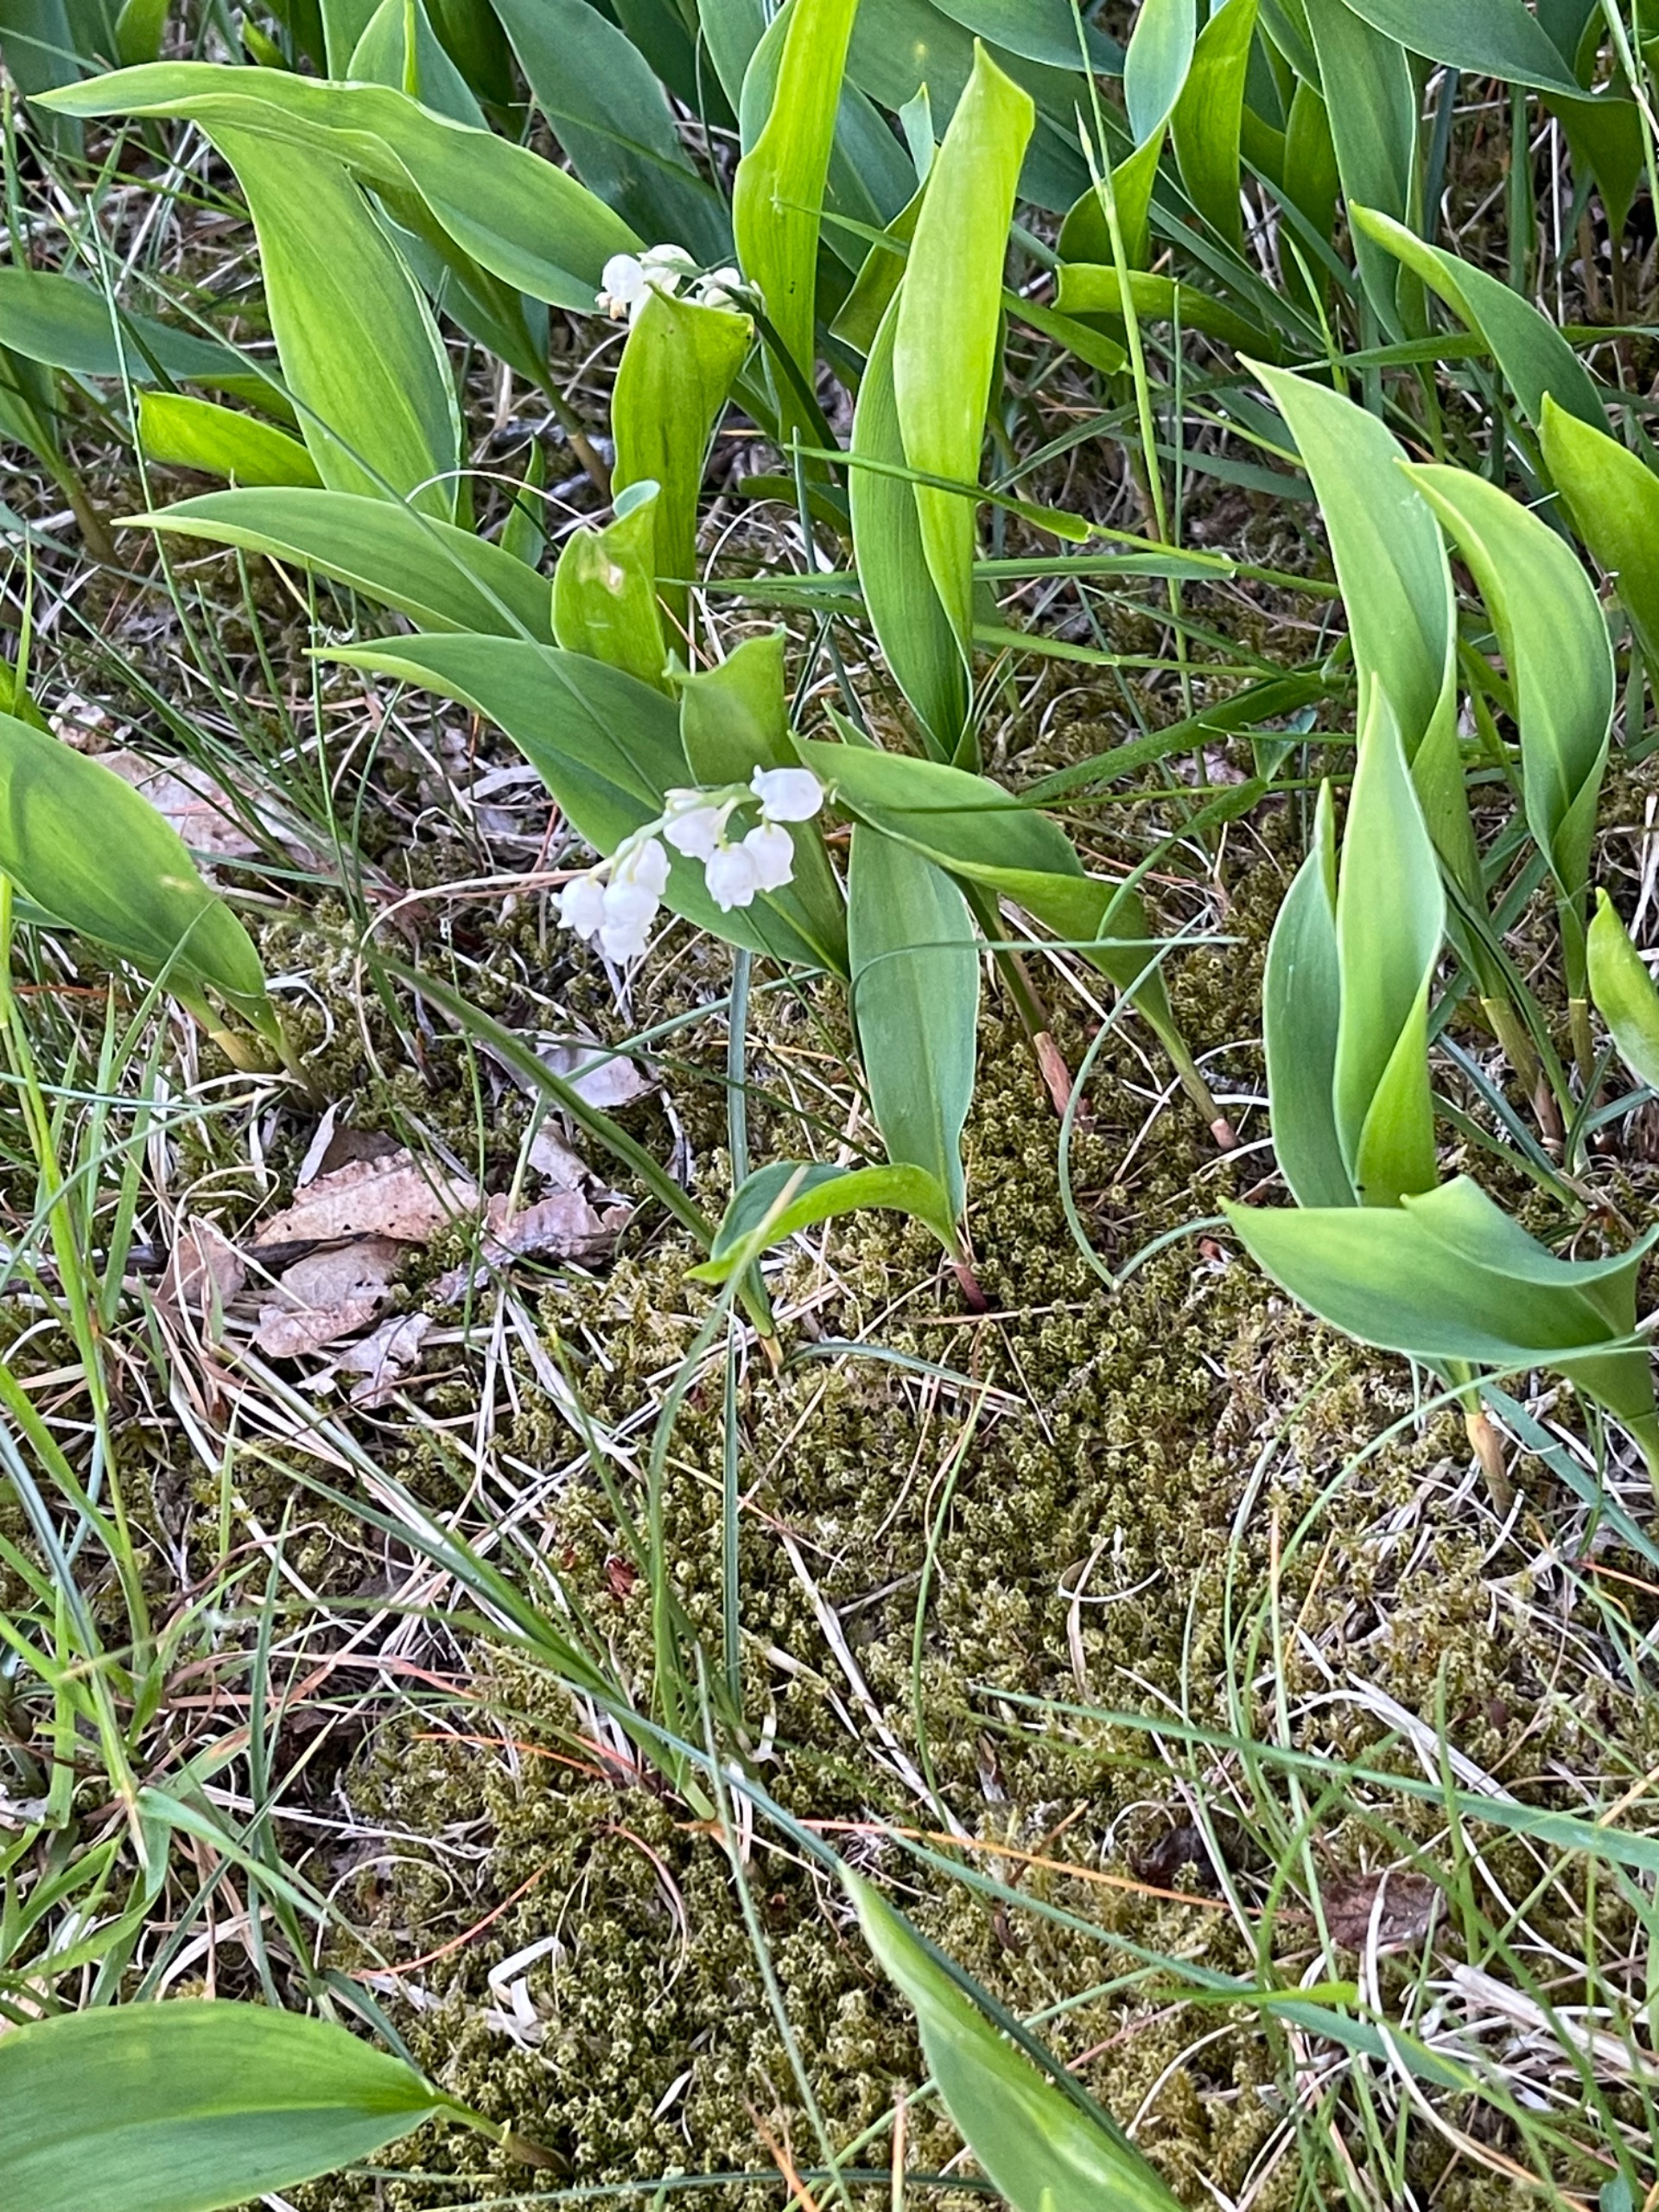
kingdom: Plantae
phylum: Tracheophyta
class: Liliopsida
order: Asparagales
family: Asparagaceae
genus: Convallaria
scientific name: Convallaria majalis
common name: Liljekonval
